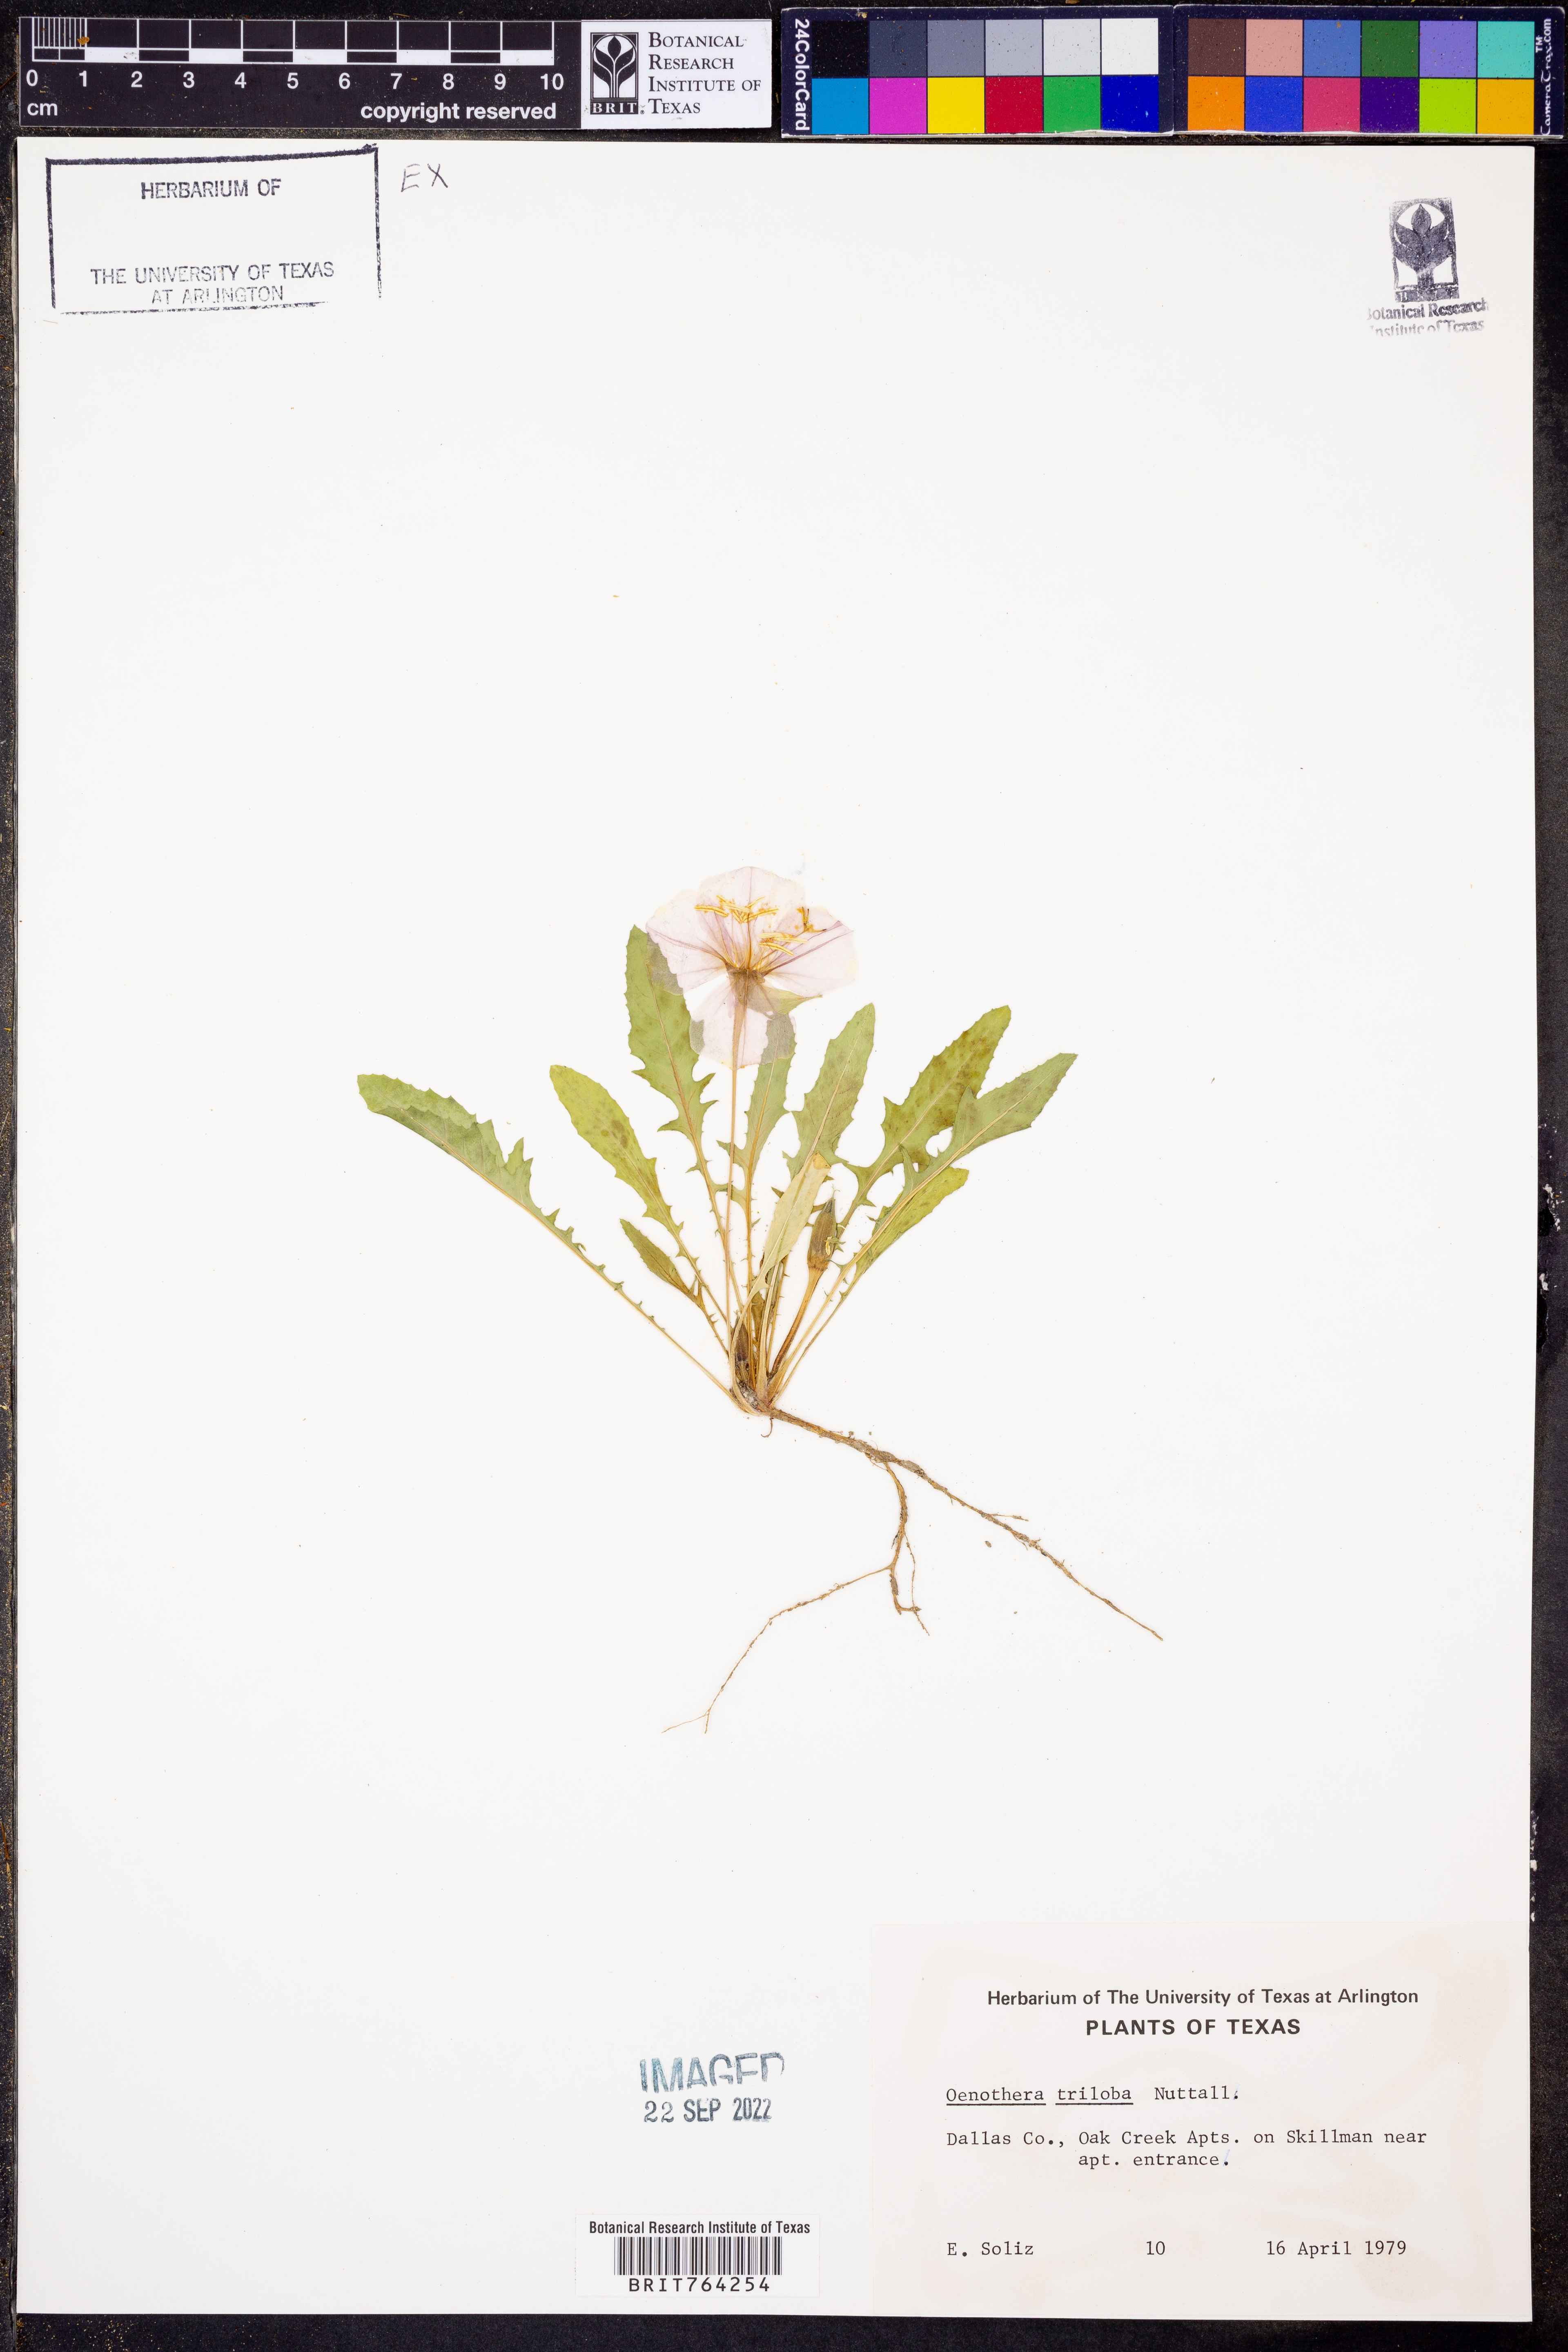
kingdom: Plantae
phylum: Tracheophyta
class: Magnoliopsida
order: Myrtales
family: Onagraceae
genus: Oenothera
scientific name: Oenothera triloba
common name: Sessile evening-primrose
